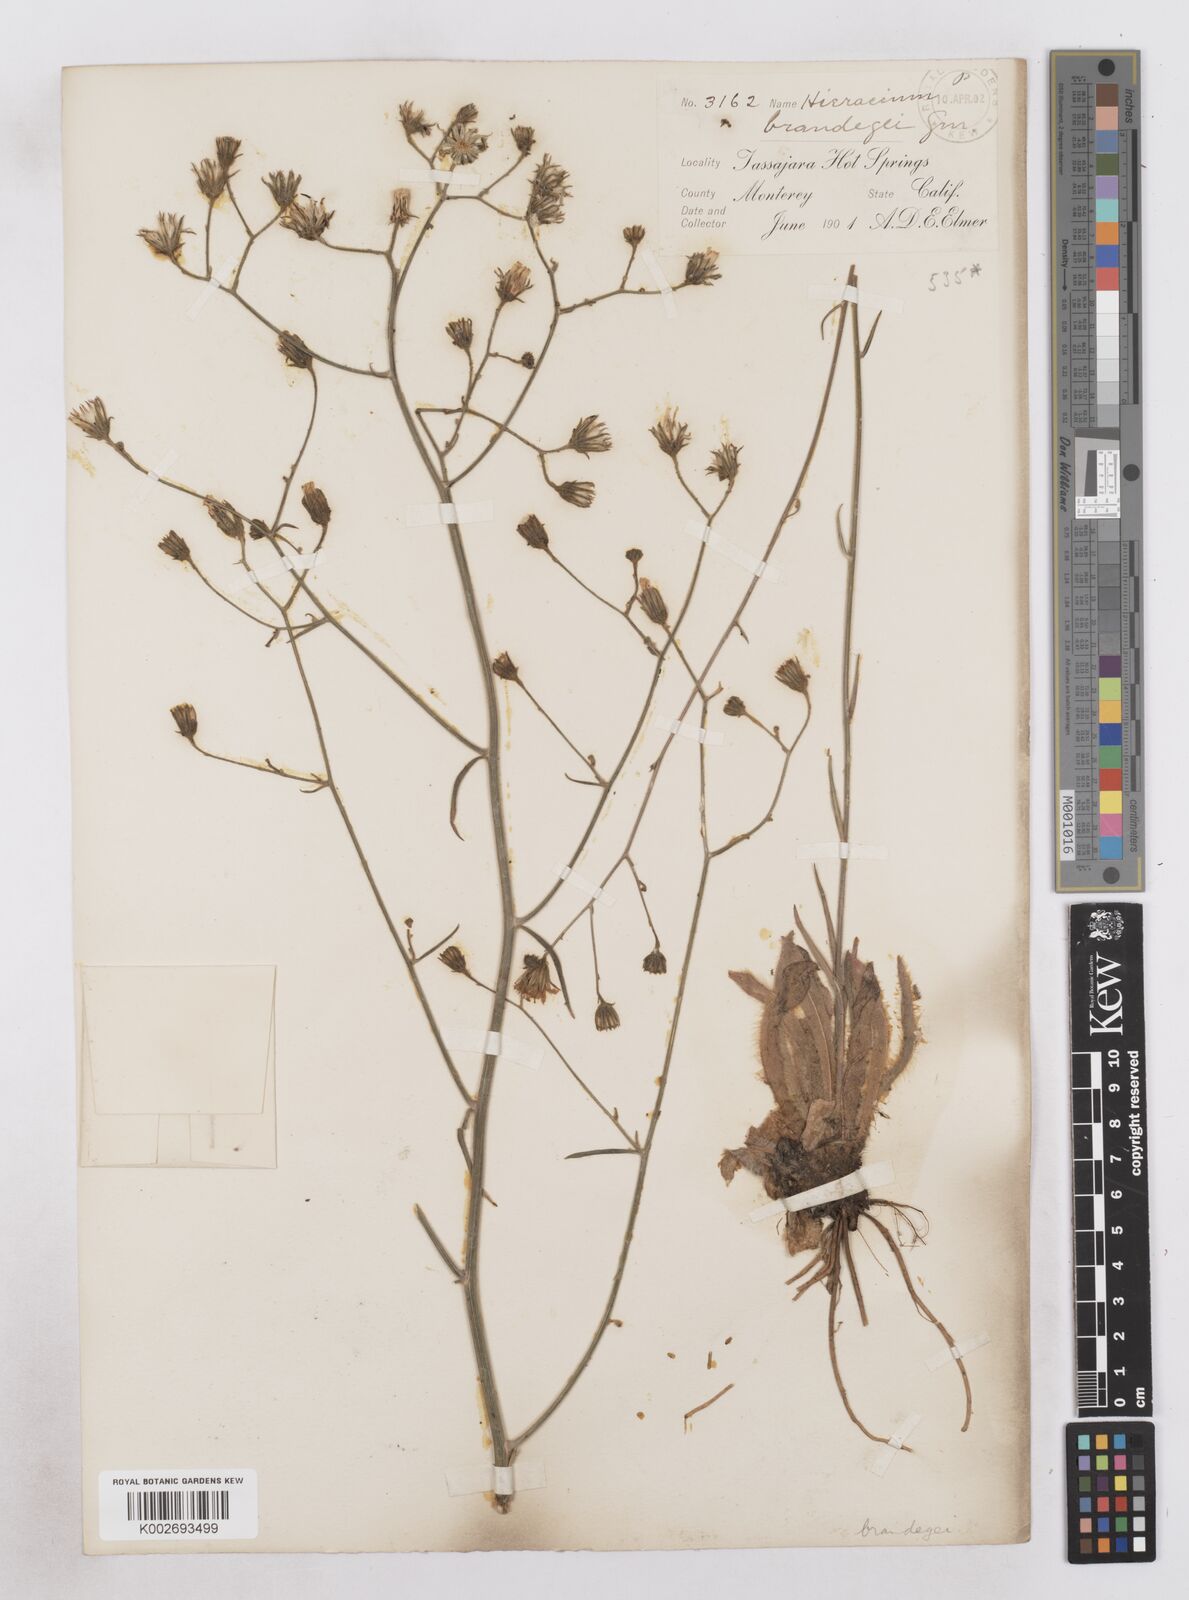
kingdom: Plantae
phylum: Tracheophyta
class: Magnoliopsida
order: Asterales
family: Asteraceae
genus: Hieracium
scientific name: Hieracium brandegeei
